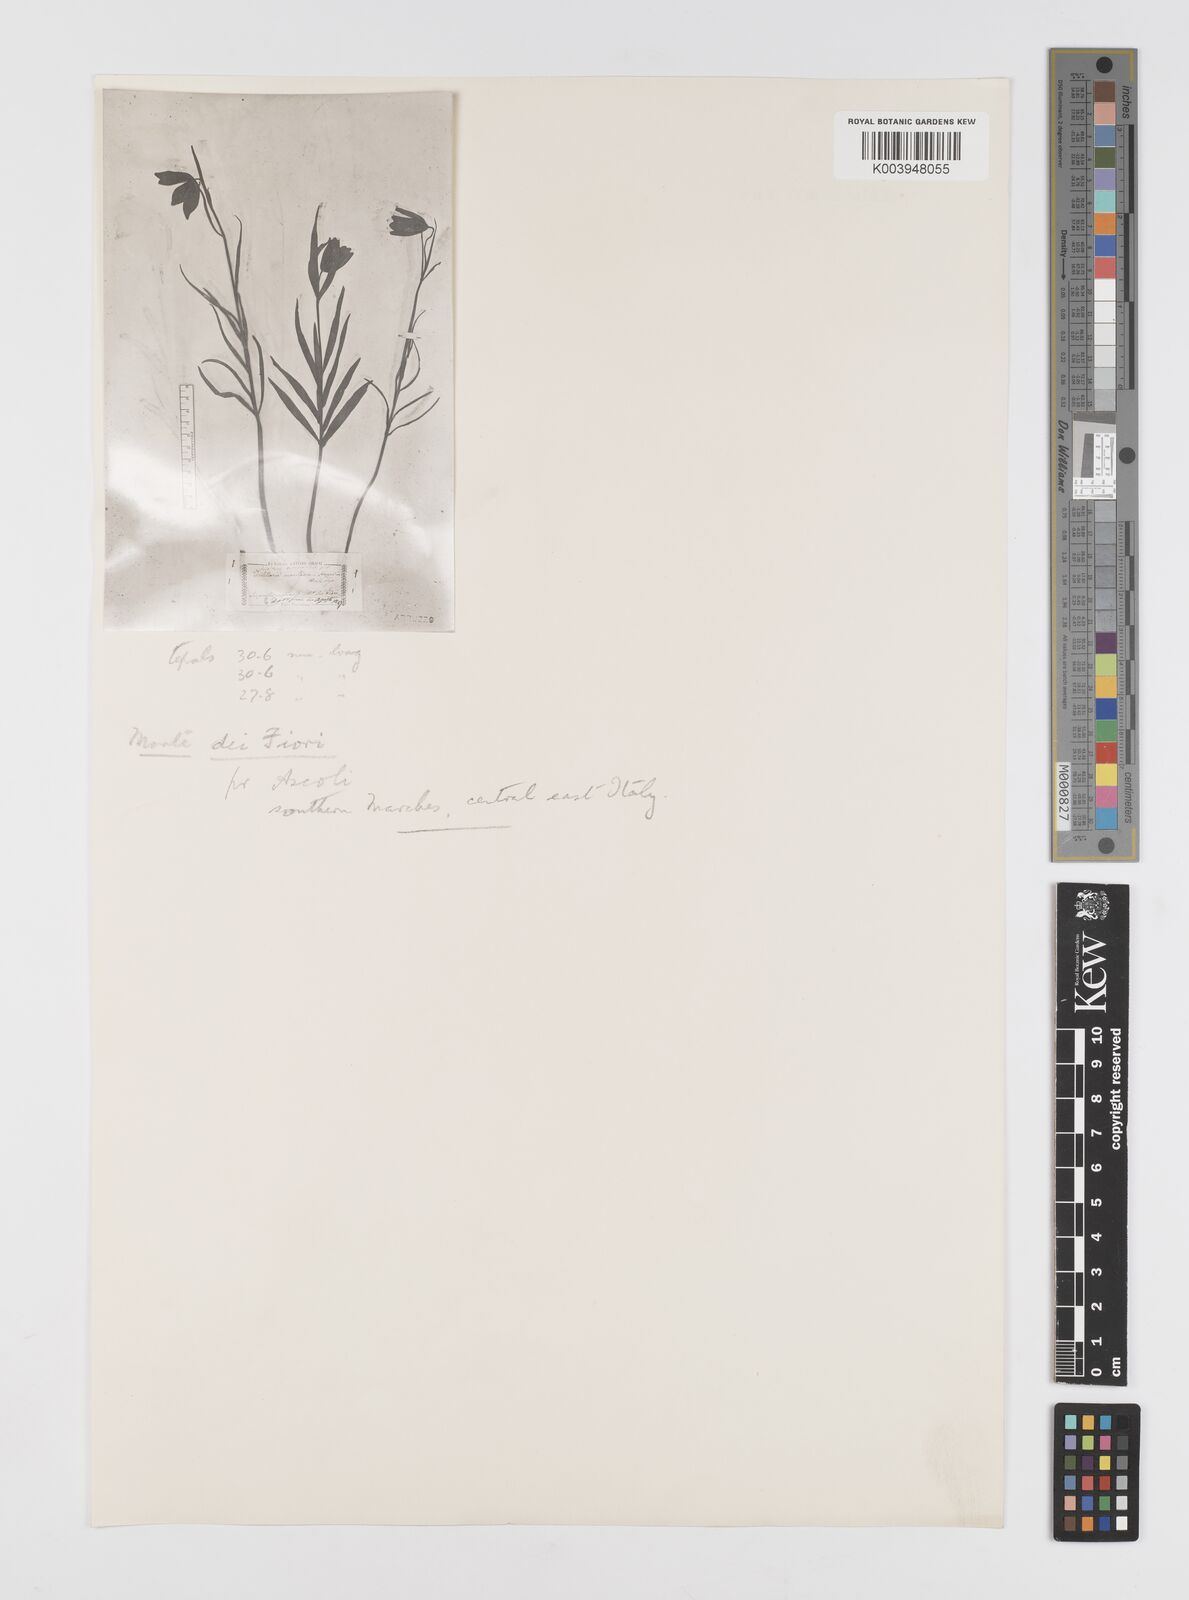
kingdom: Plantae
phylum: Tracheophyta
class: Liliopsida
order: Liliales
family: Liliaceae
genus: Fritillaria
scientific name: Fritillaria montana
